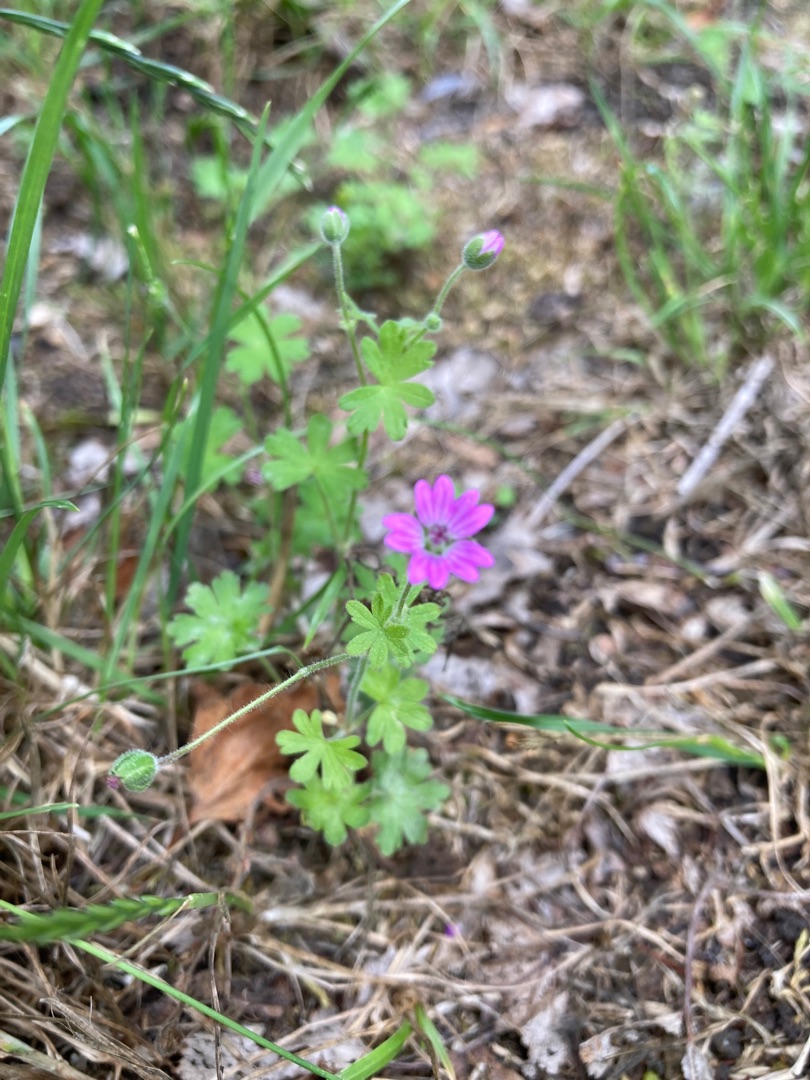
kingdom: Plantae
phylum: Tracheophyta
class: Magnoliopsida
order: Geraniales
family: Geraniaceae
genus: Geranium
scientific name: Geranium molle
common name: Blød storkenæb
